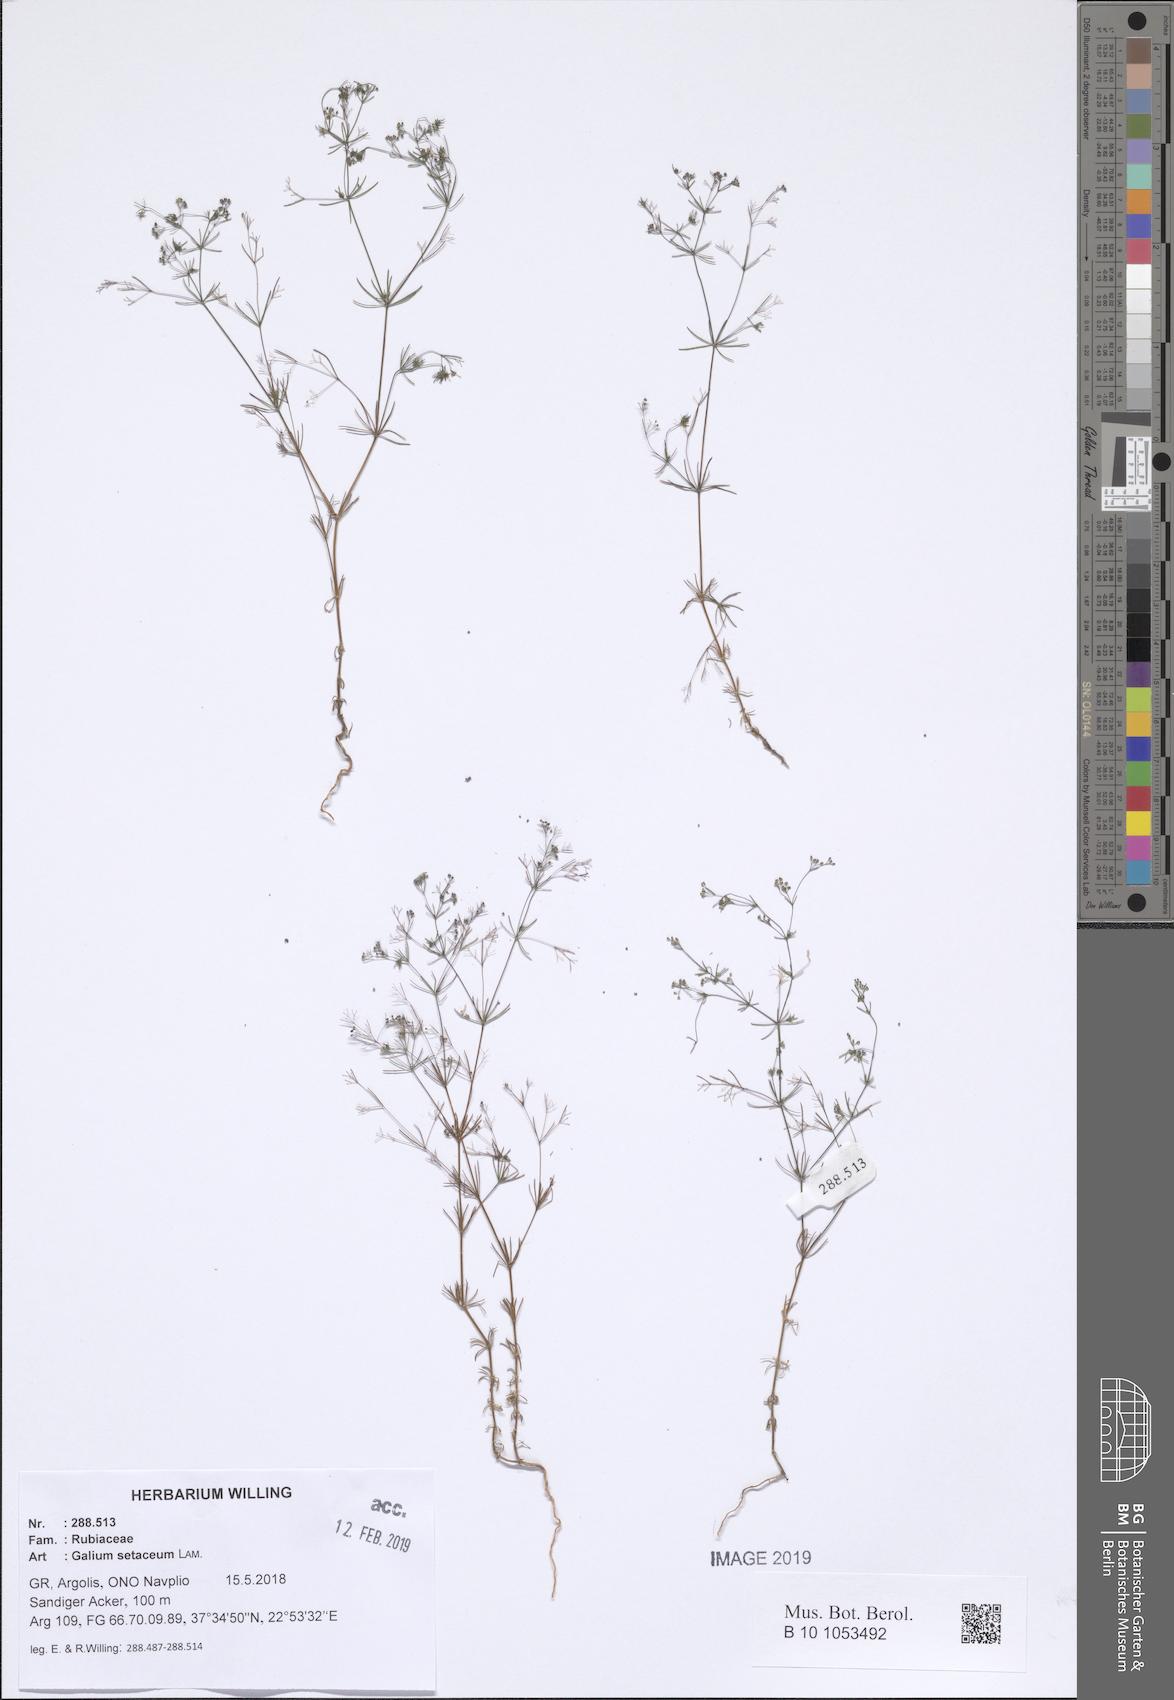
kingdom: Plantae
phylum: Tracheophyta
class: Magnoliopsida
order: Gentianales
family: Rubiaceae
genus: Galium
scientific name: Galium setaceum
